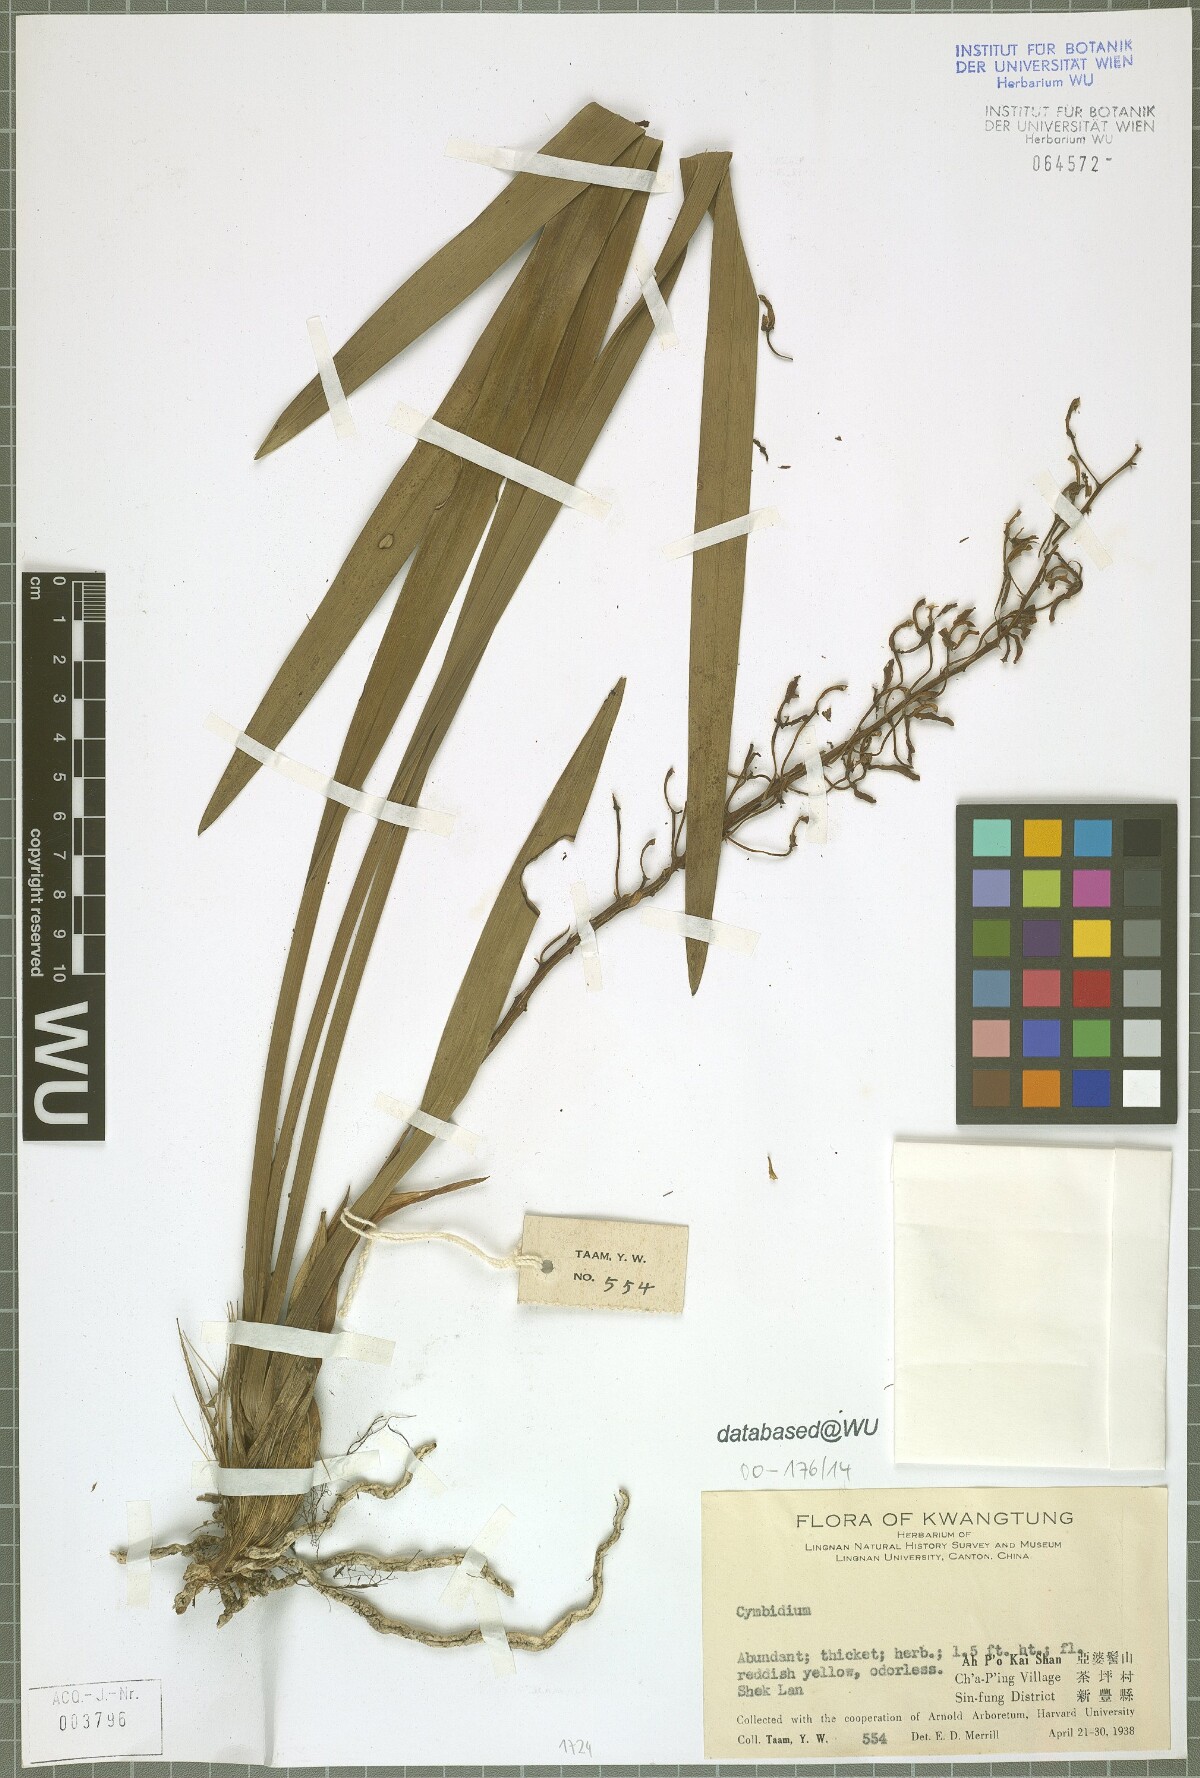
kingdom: Plantae
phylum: Tracheophyta
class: Liliopsida
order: Asparagales
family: Orchidaceae
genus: Cymbidium
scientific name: Cymbidium
